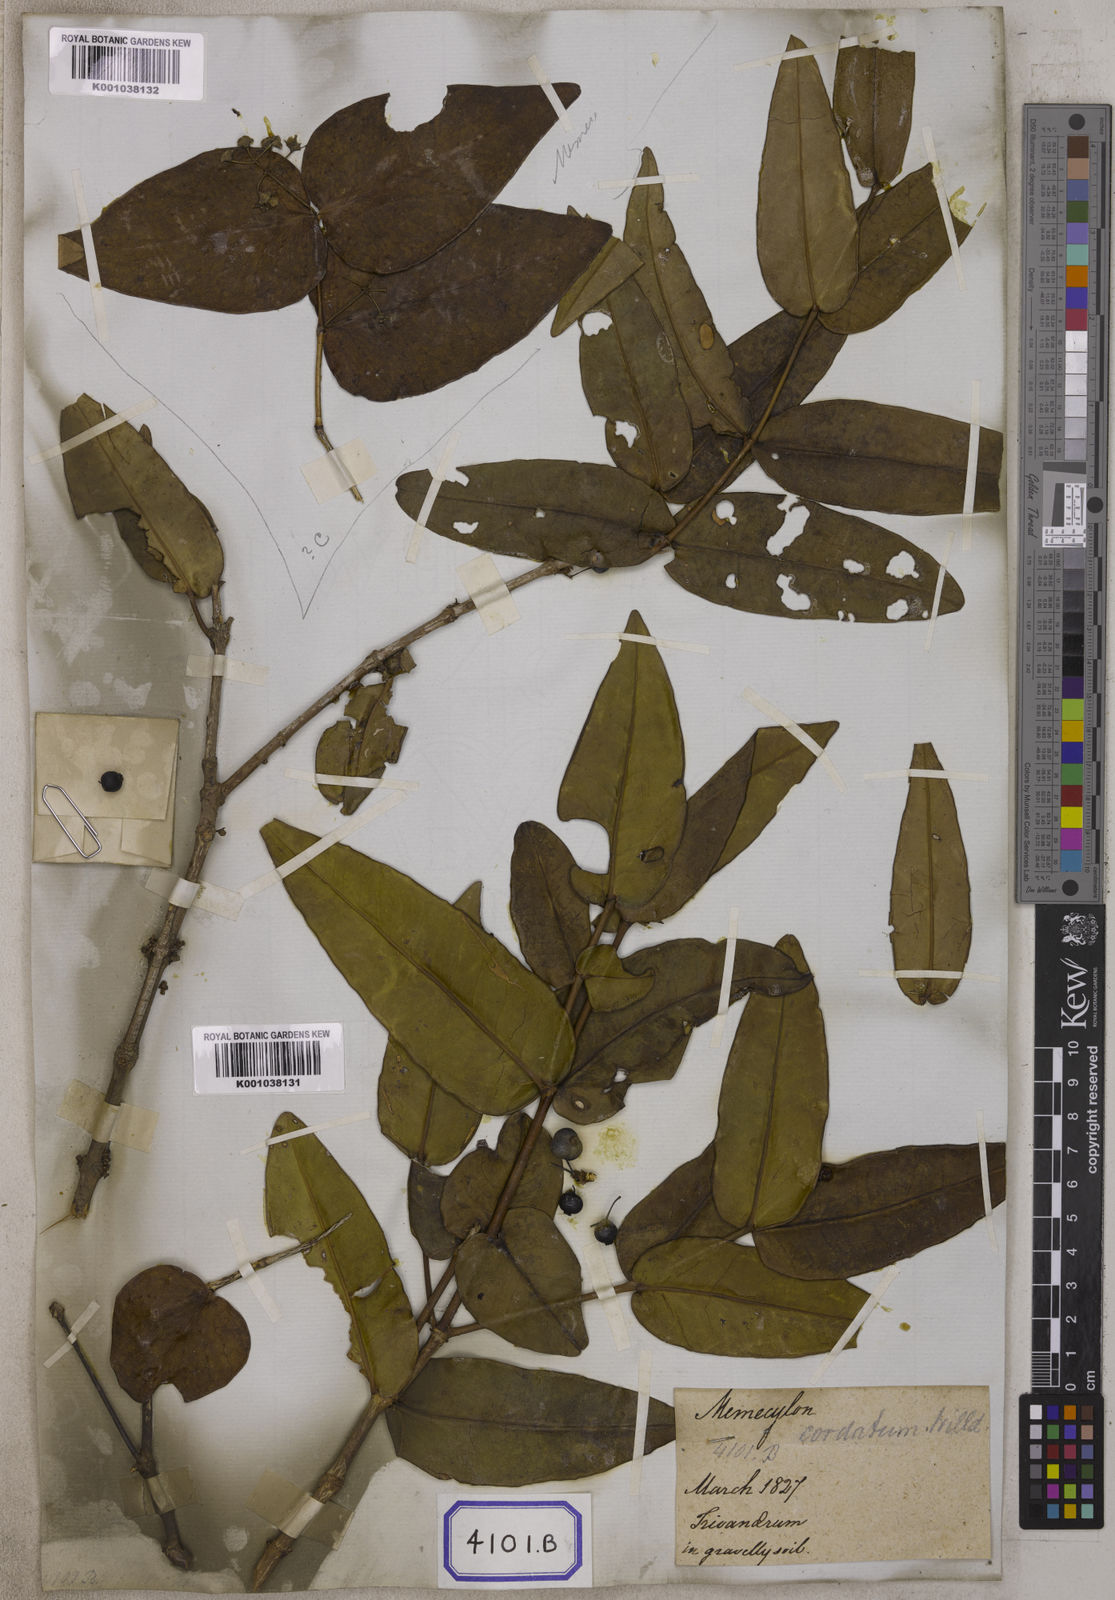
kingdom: Plantae
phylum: Tracheophyta
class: Magnoliopsida
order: Myrtales
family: Melastomataceae
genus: Memecylon
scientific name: Memecylon wallichii
